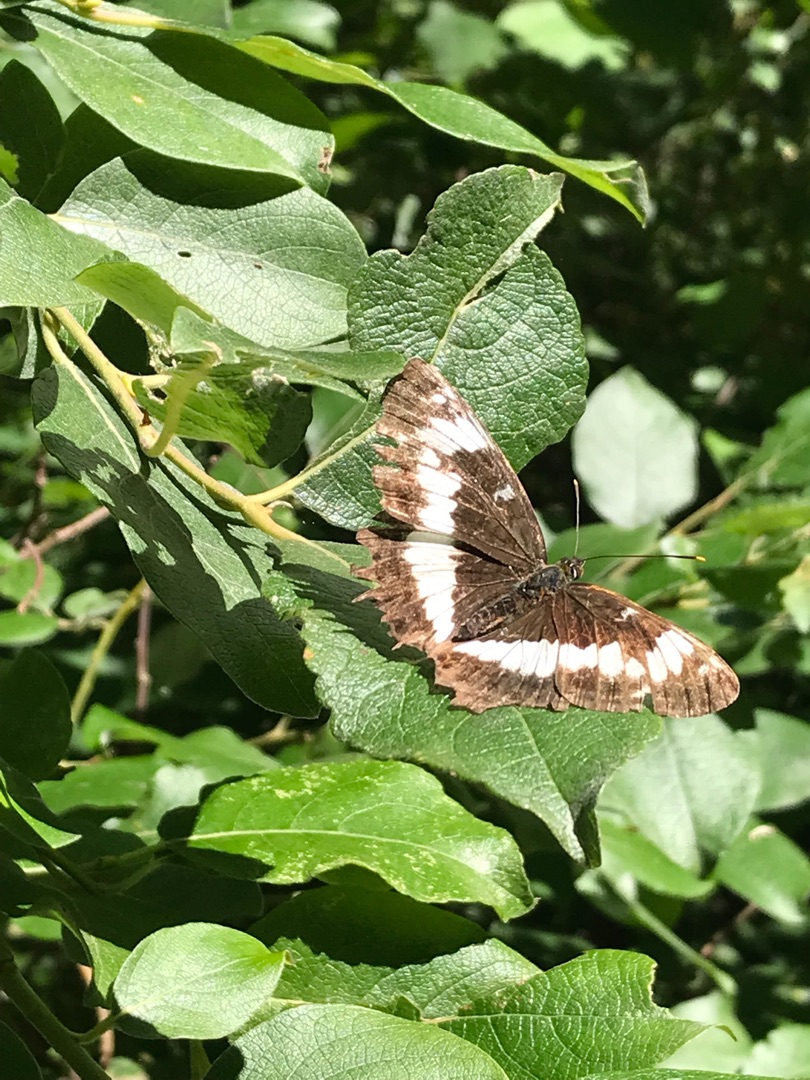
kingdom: Animalia
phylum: Arthropoda
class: Insecta
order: Lepidoptera
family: Nymphalidae
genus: Ladoga
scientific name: Ladoga camilla
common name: Hvid admiral
